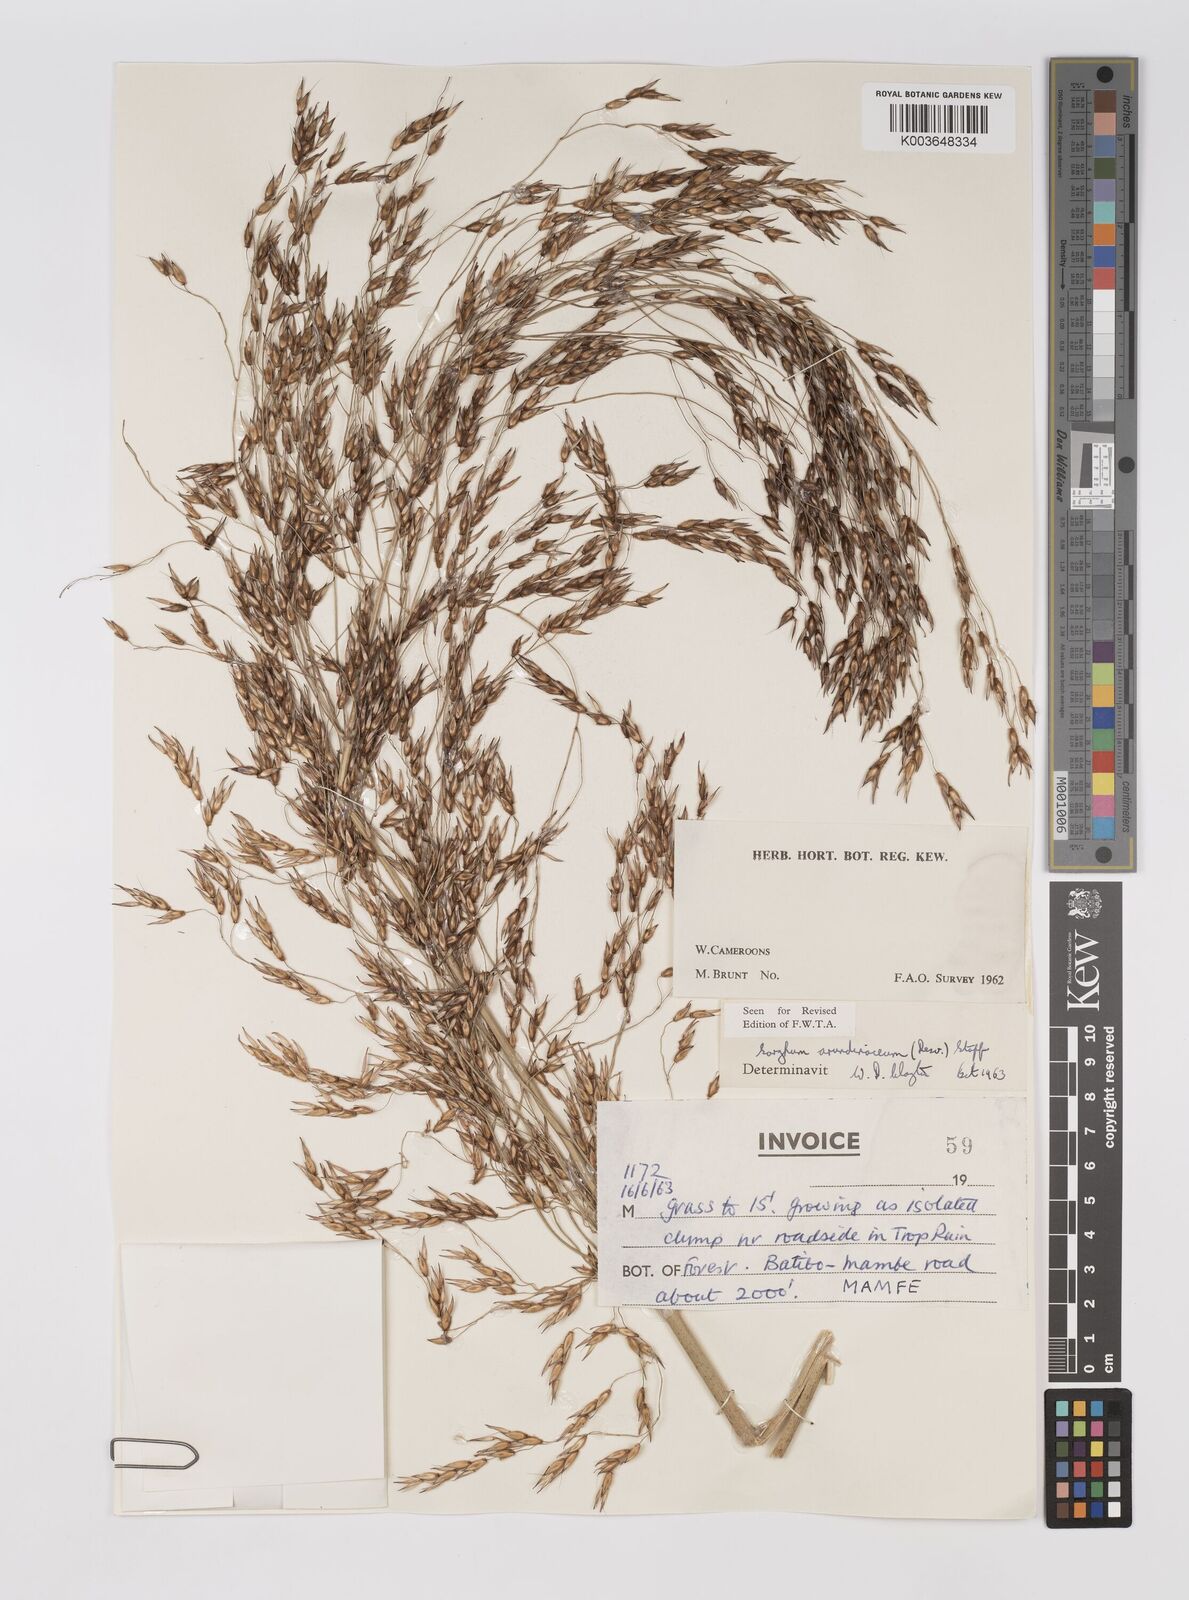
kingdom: Plantae
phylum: Tracheophyta
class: Liliopsida
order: Poales
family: Poaceae
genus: Sorghum
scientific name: Sorghum arundinaceum
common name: Sorghum
